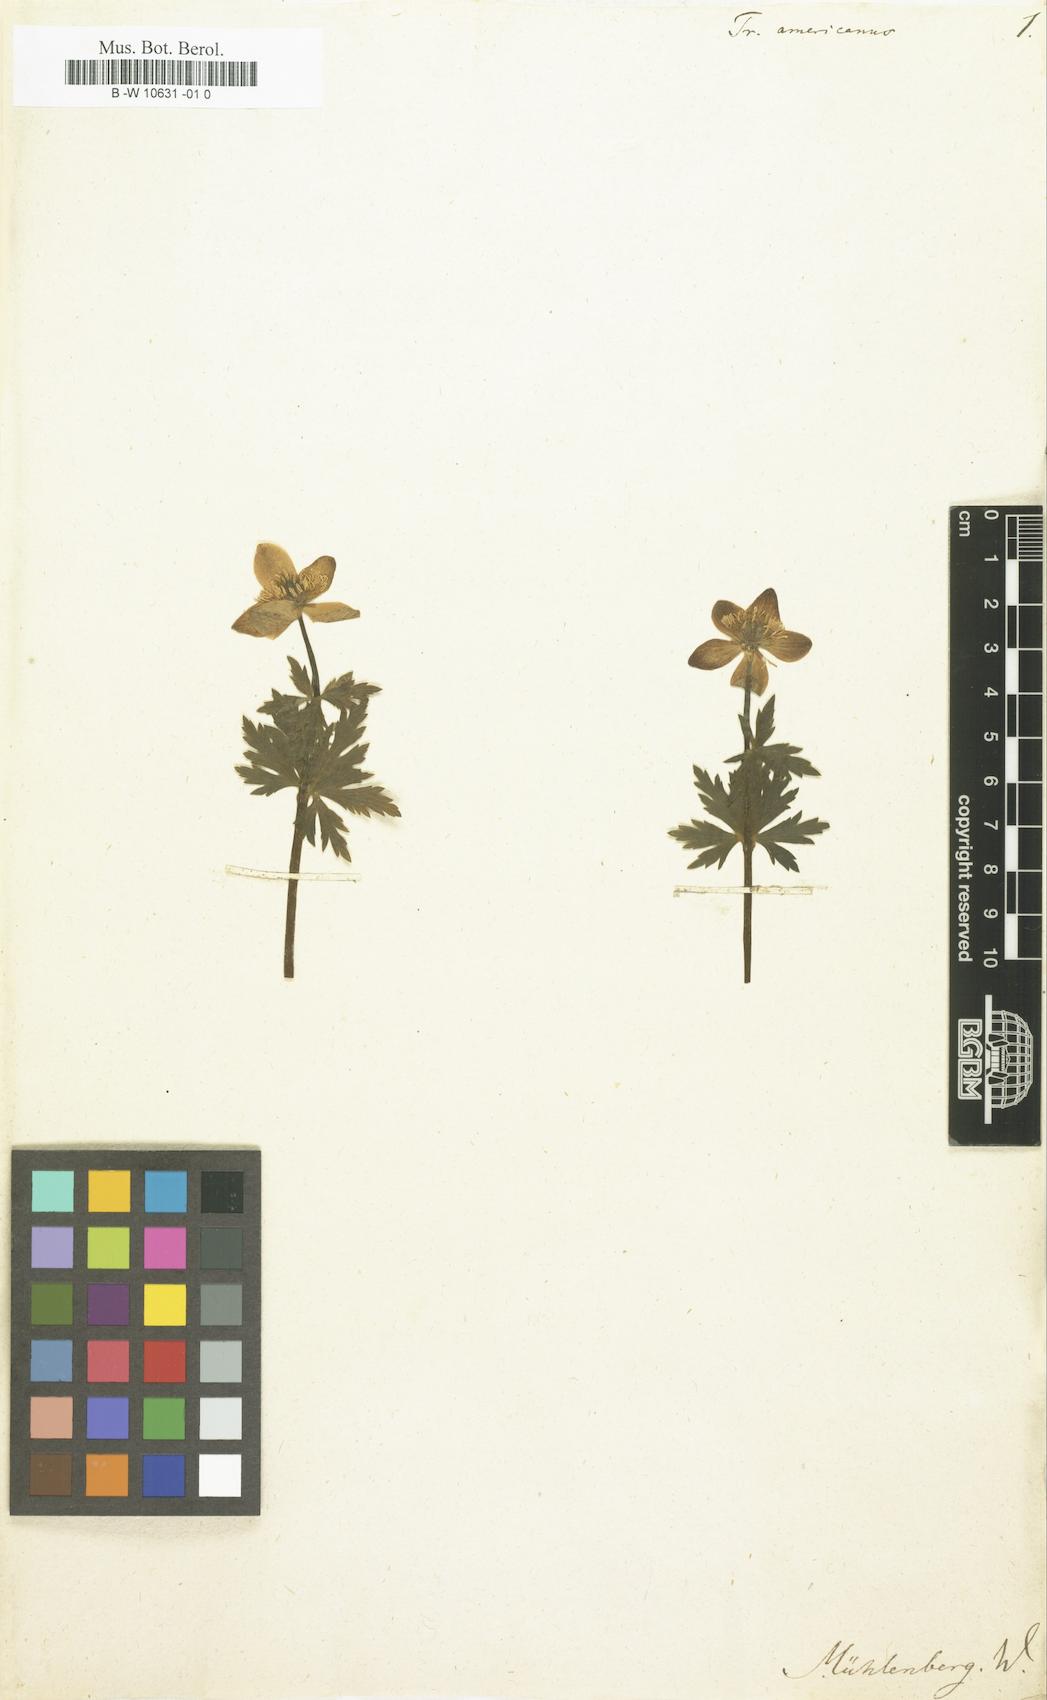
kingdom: Plantae
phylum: Tracheophyta
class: Magnoliopsida
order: Ranunculales
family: Ranunculaceae
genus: Trollius
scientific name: Trollius americanus
